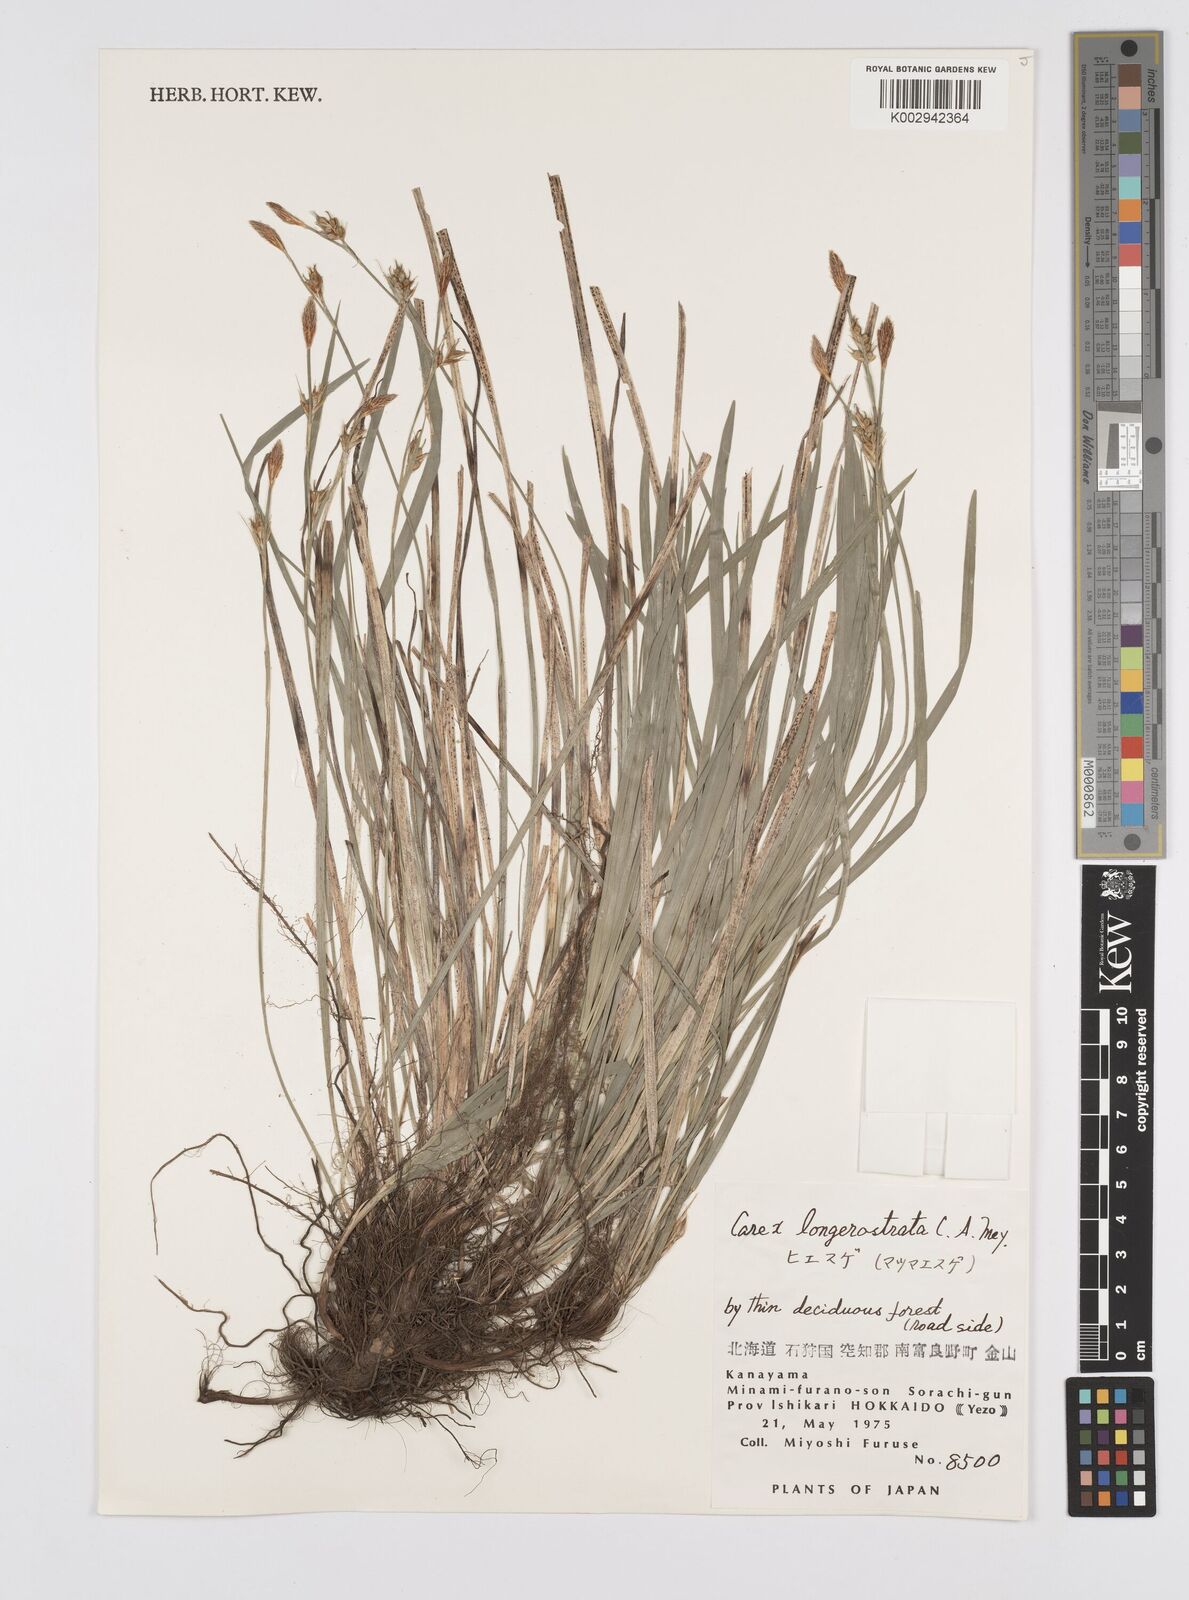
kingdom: Plantae
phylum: Tracheophyta
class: Liliopsida
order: Poales
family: Cyperaceae
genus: Carex
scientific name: Carex longerostrata
